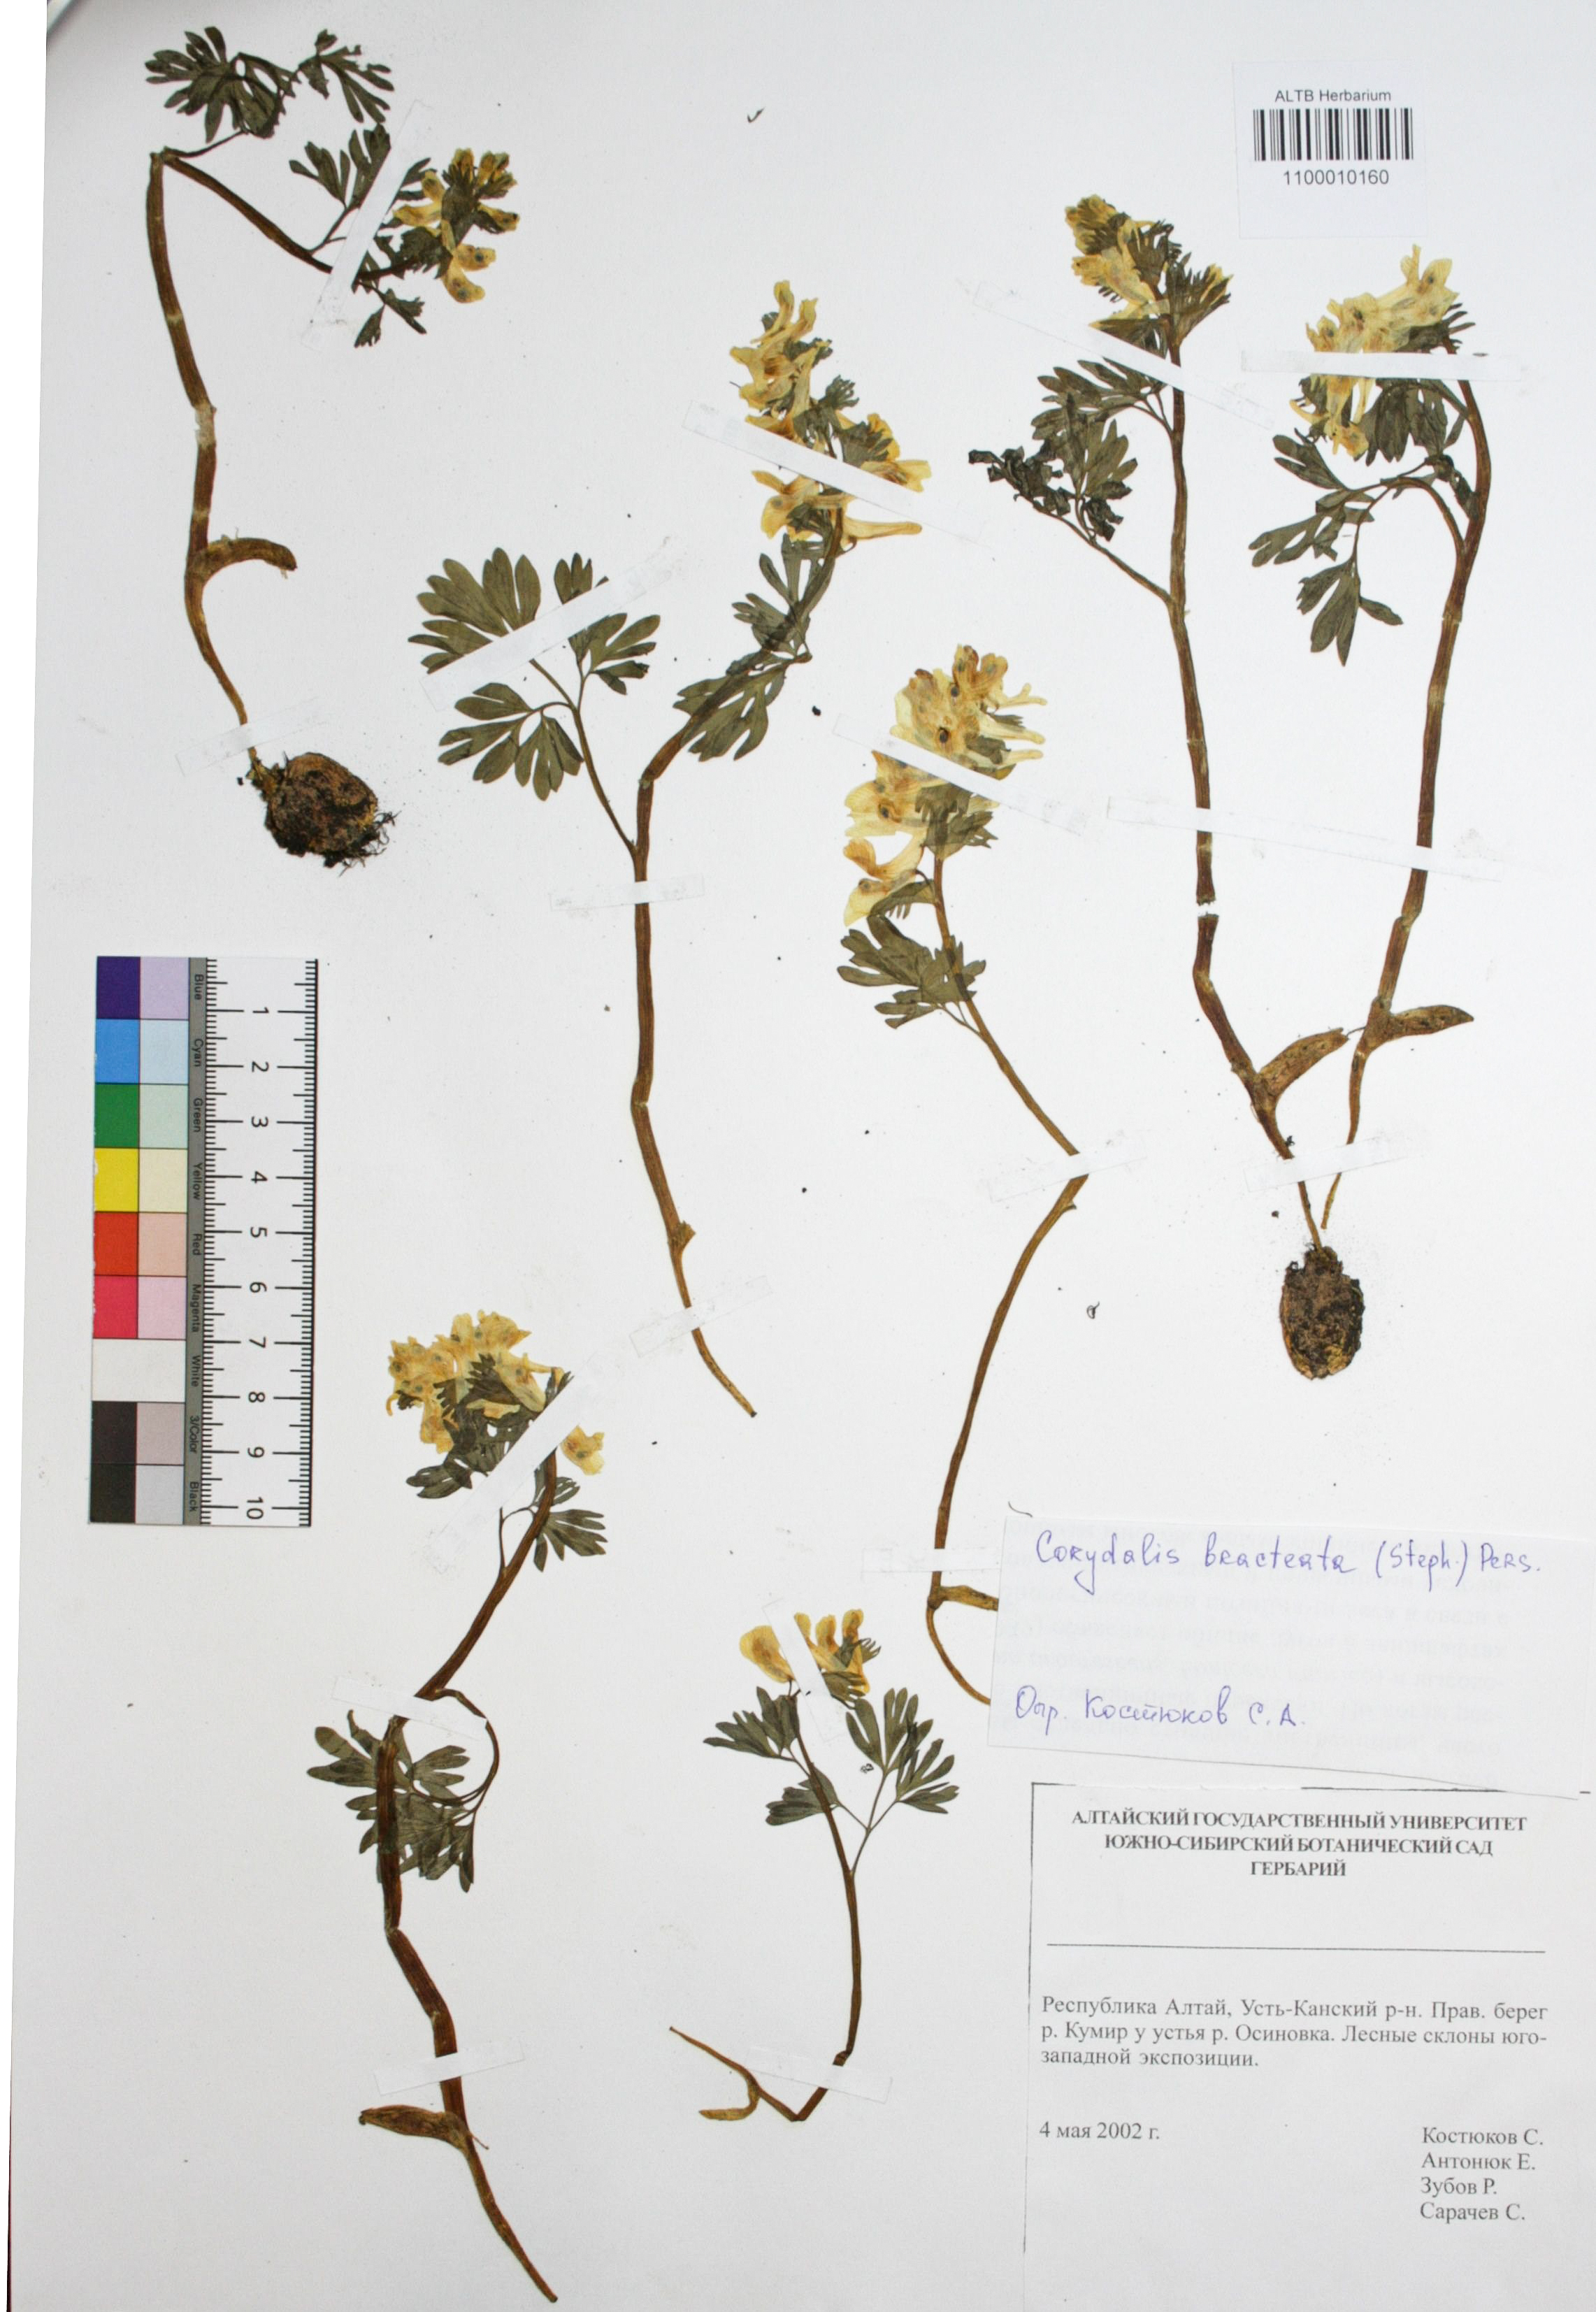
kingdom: Plantae
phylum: Tracheophyta
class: Magnoliopsida
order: Ranunculales
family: Papaveraceae
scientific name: Papaveraceae
